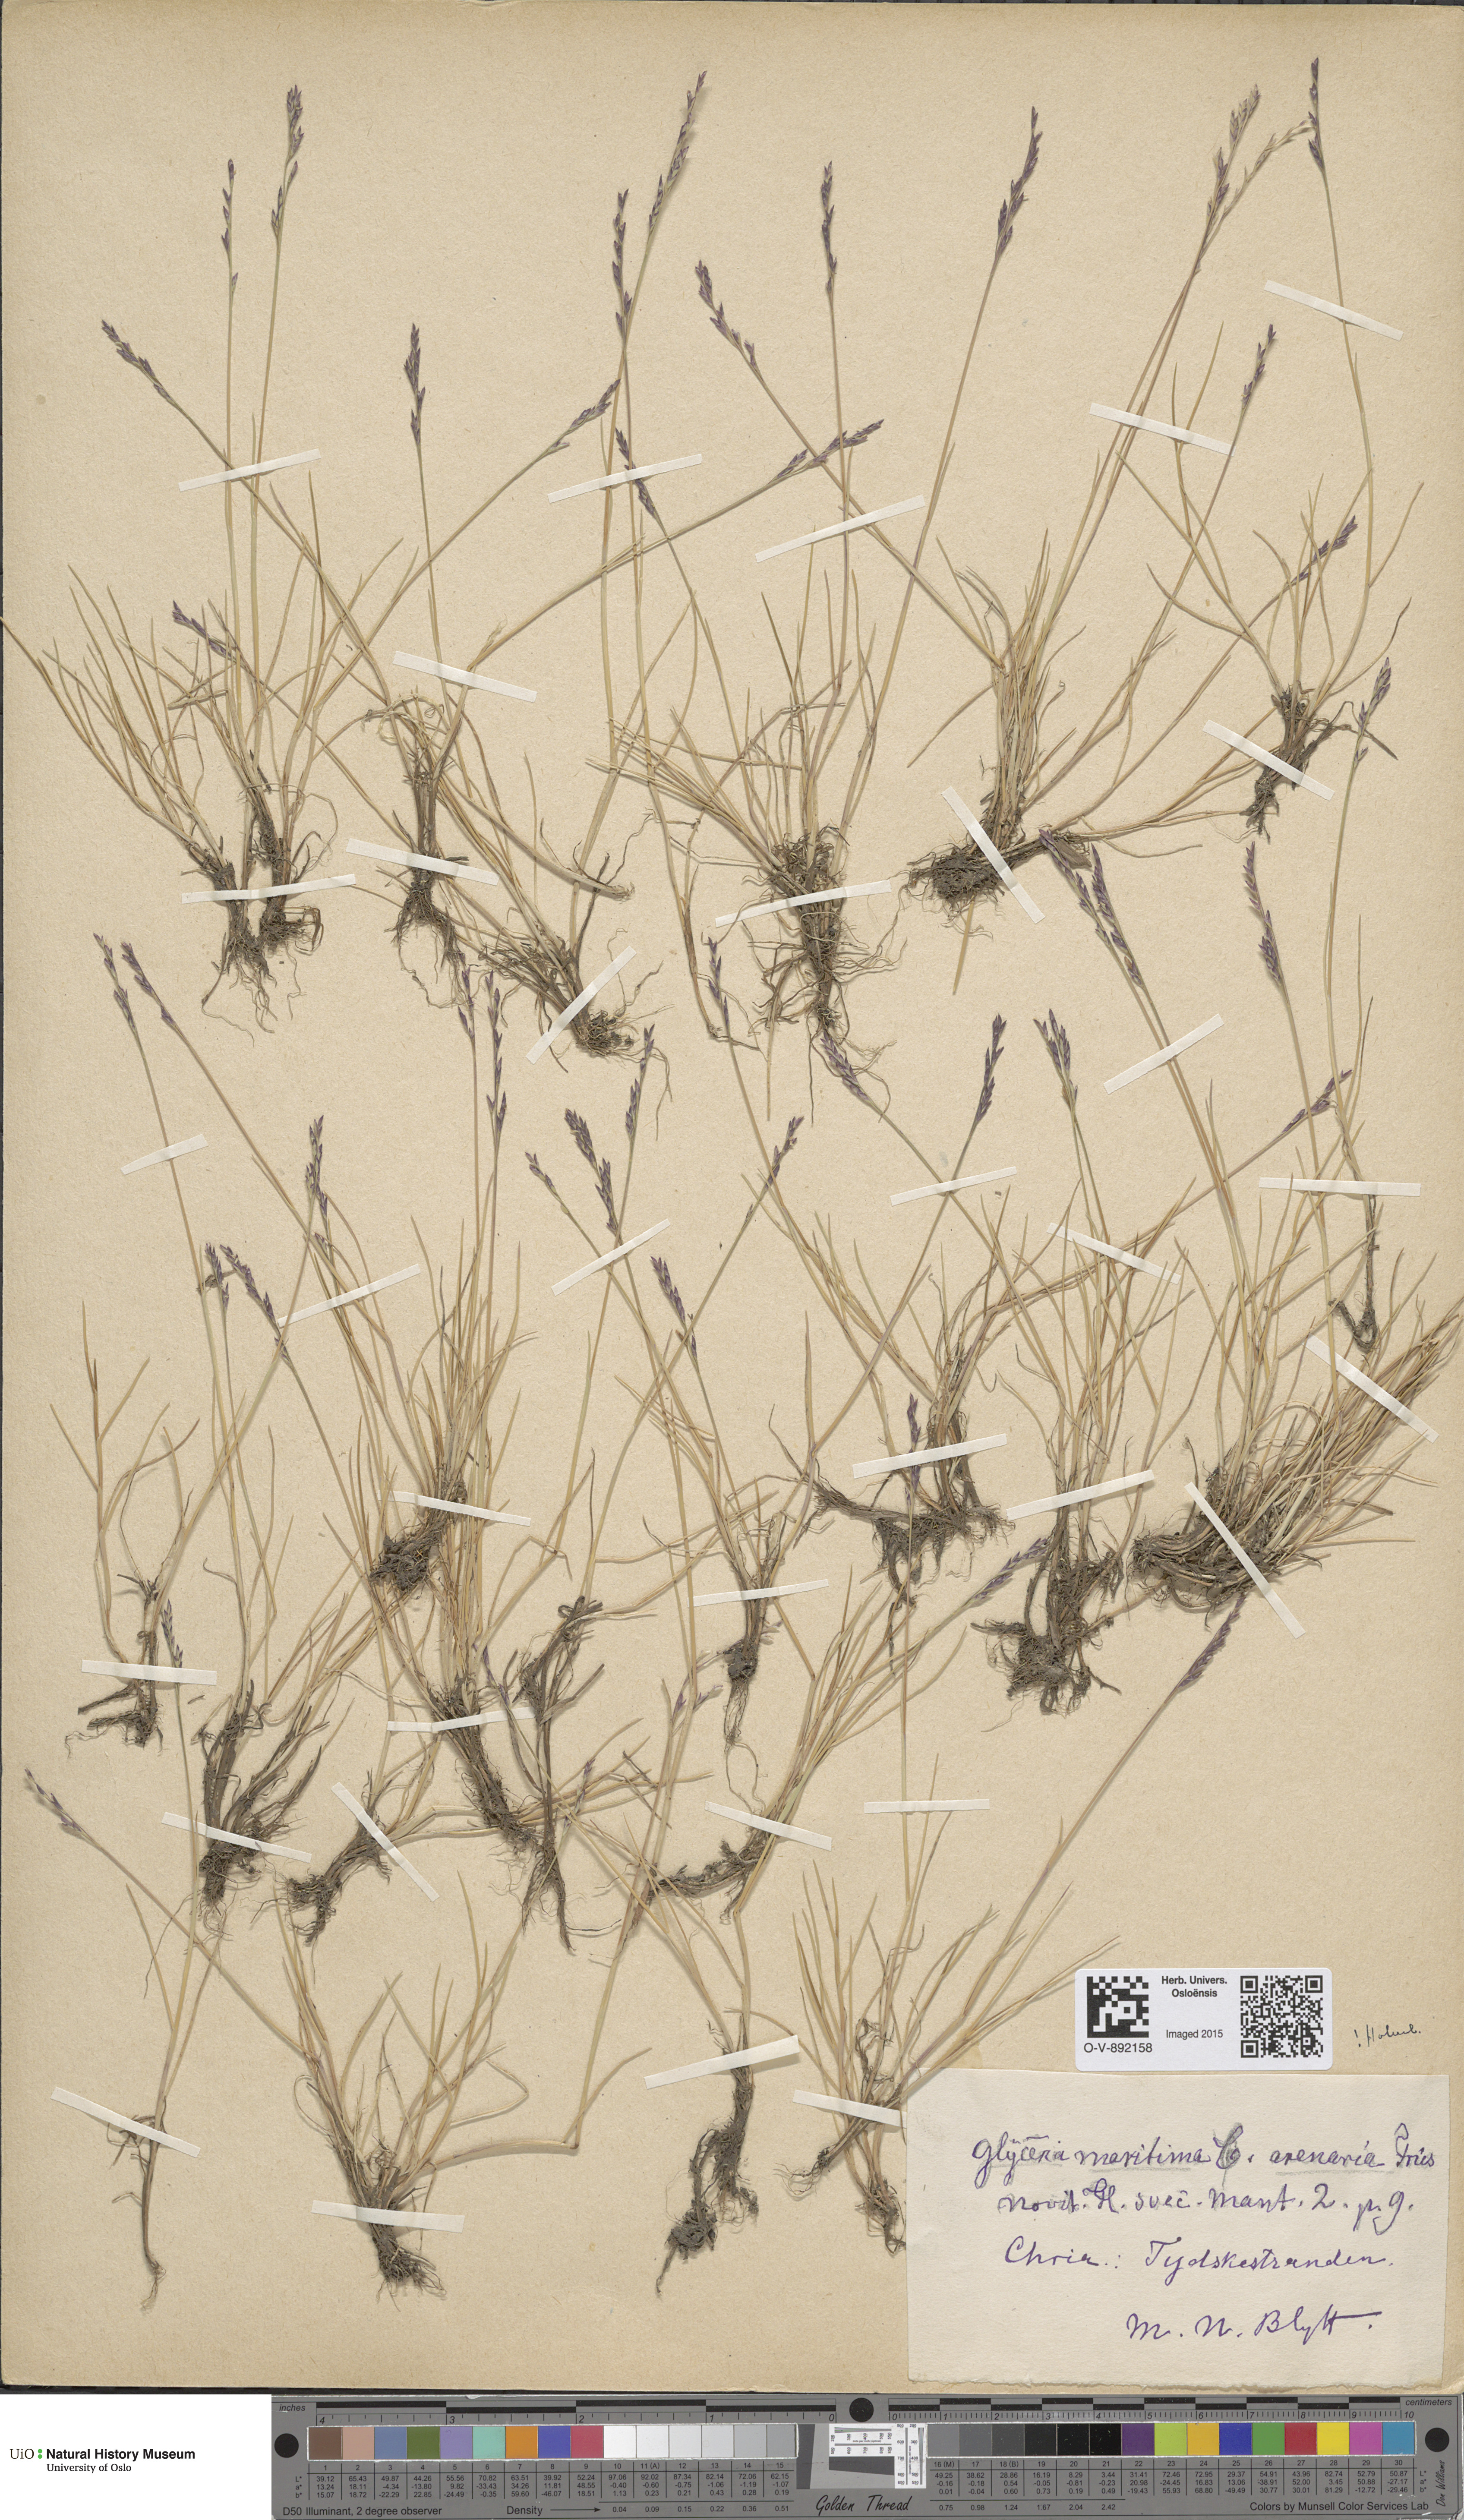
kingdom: Plantae
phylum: Tracheophyta
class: Liliopsida
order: Poales
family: Poaceae
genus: Puccinellia
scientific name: Puccinellia maritima
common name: Common saltmarsh grass
